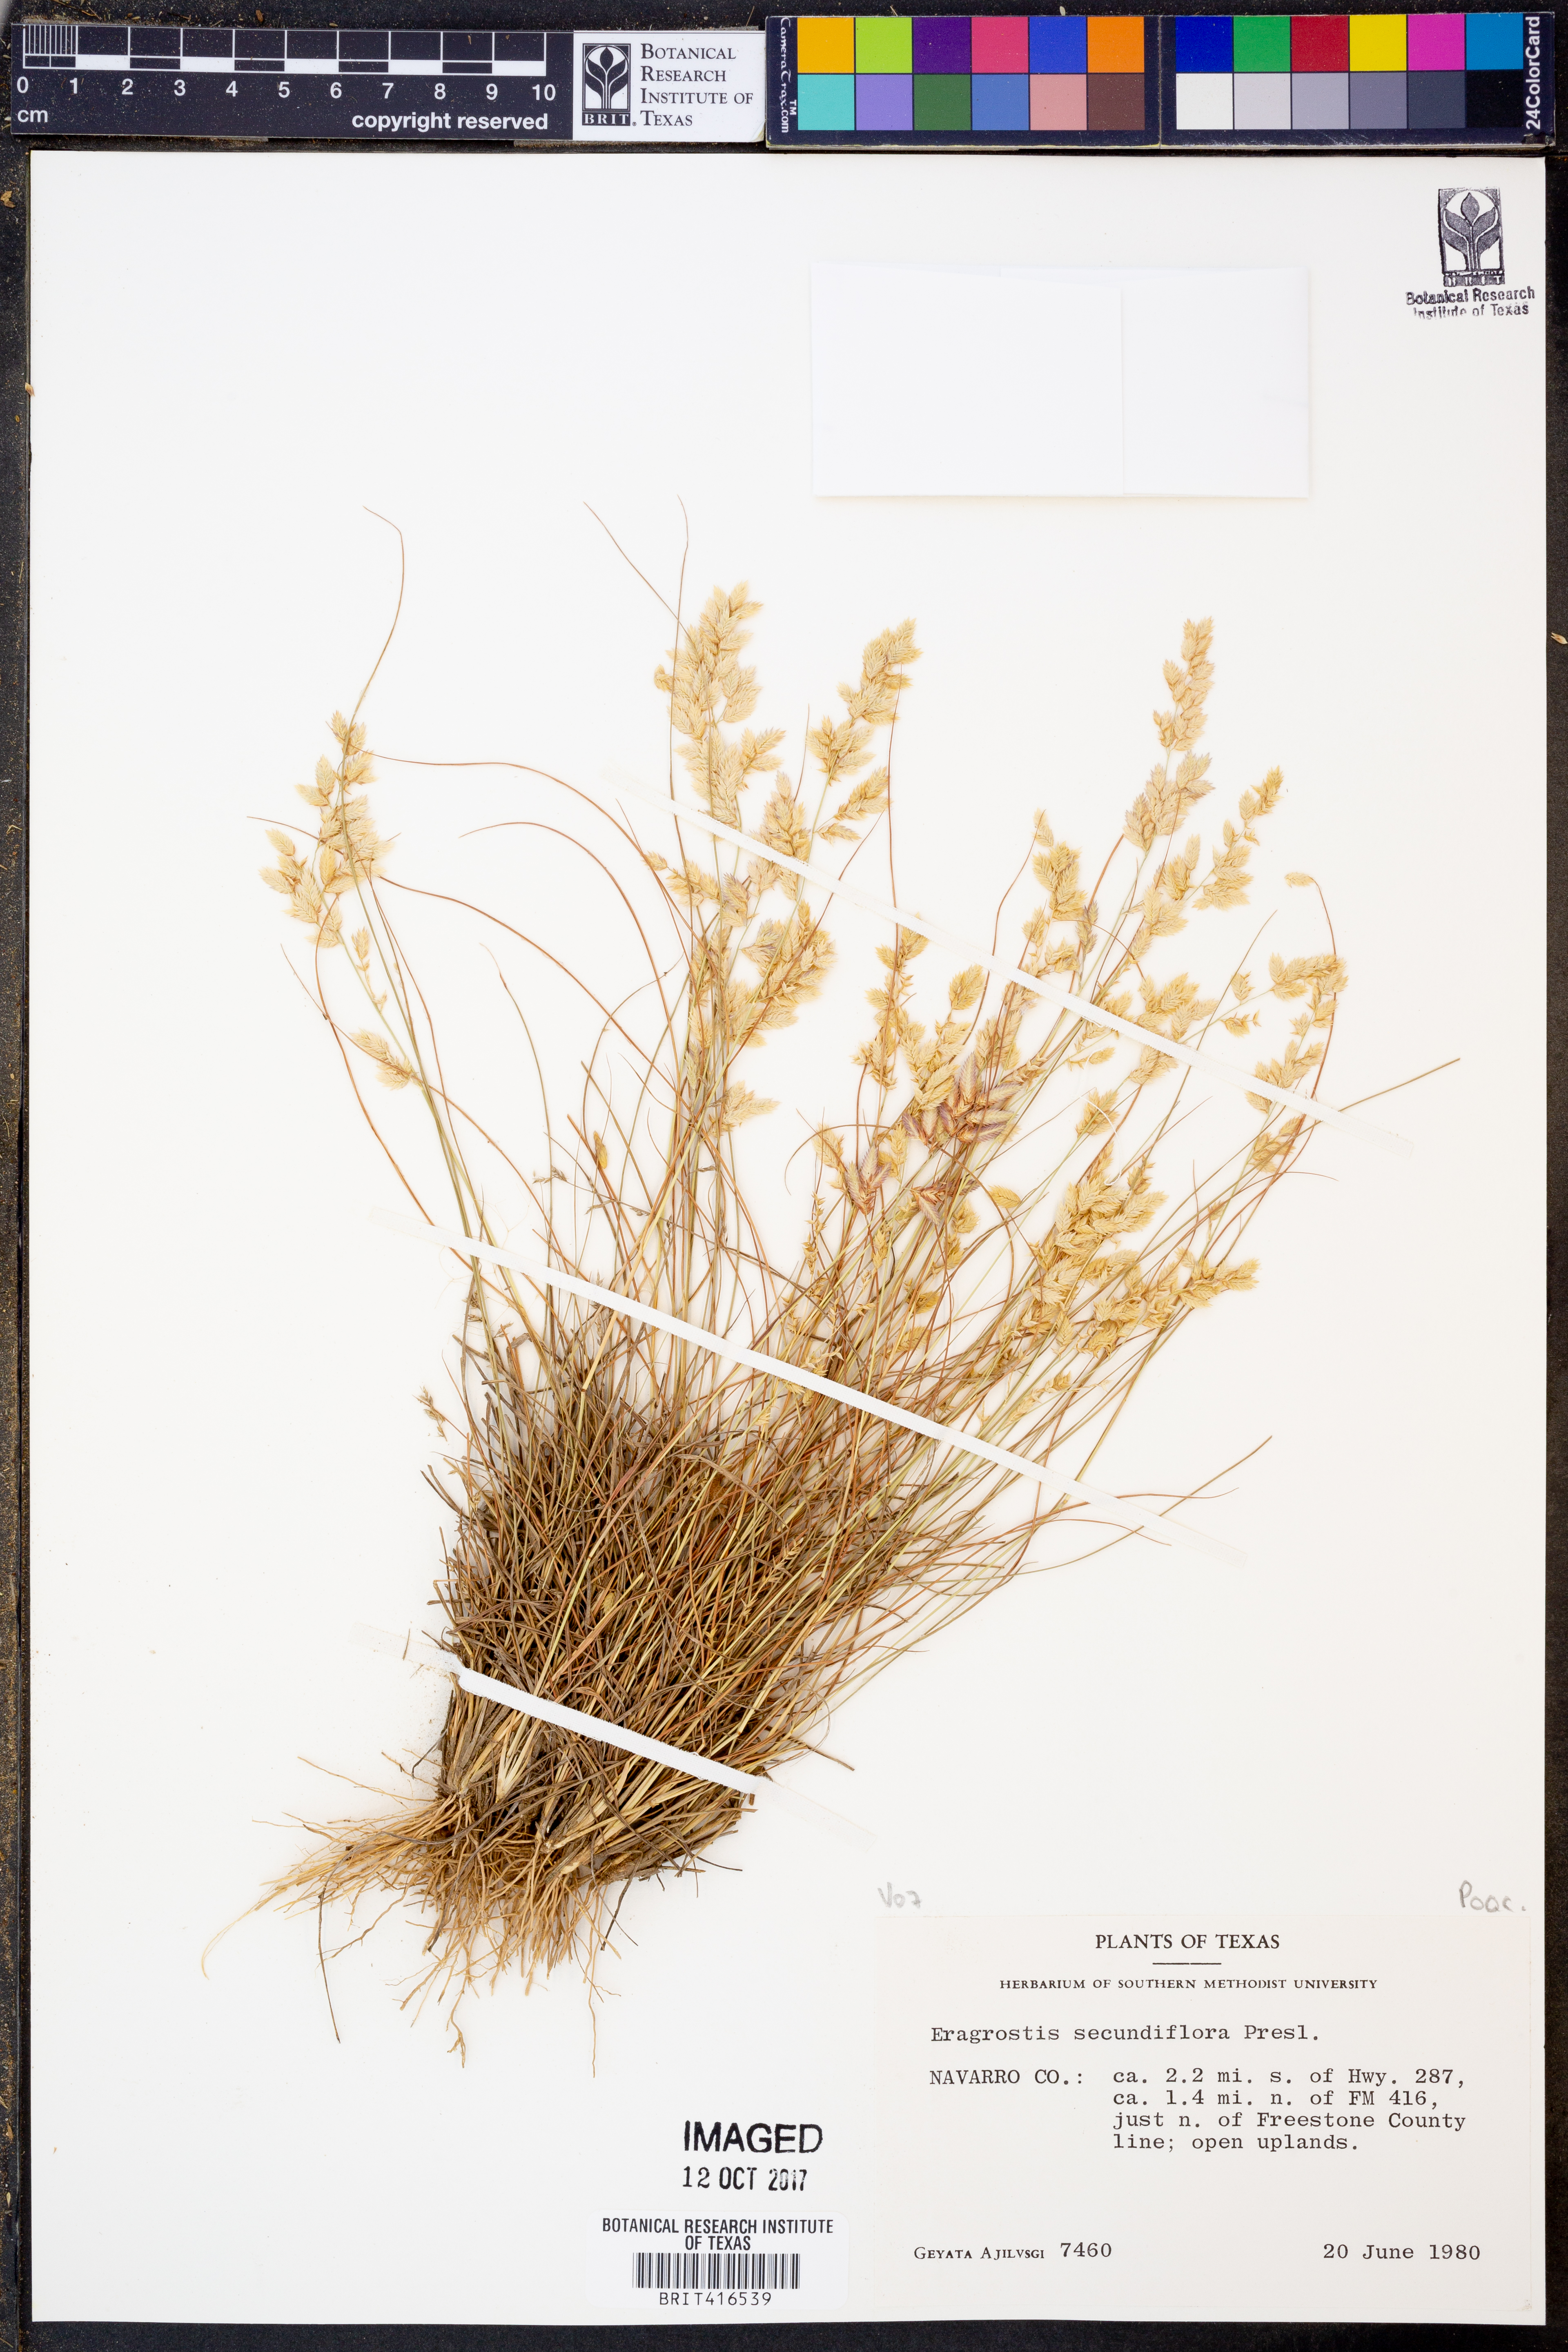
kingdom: Plantae
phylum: Tracheophyta
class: Liliopsida
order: Poales
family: Poaceae
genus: Eragrostis
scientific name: Eragrostis secundiflora
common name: Red love grass
